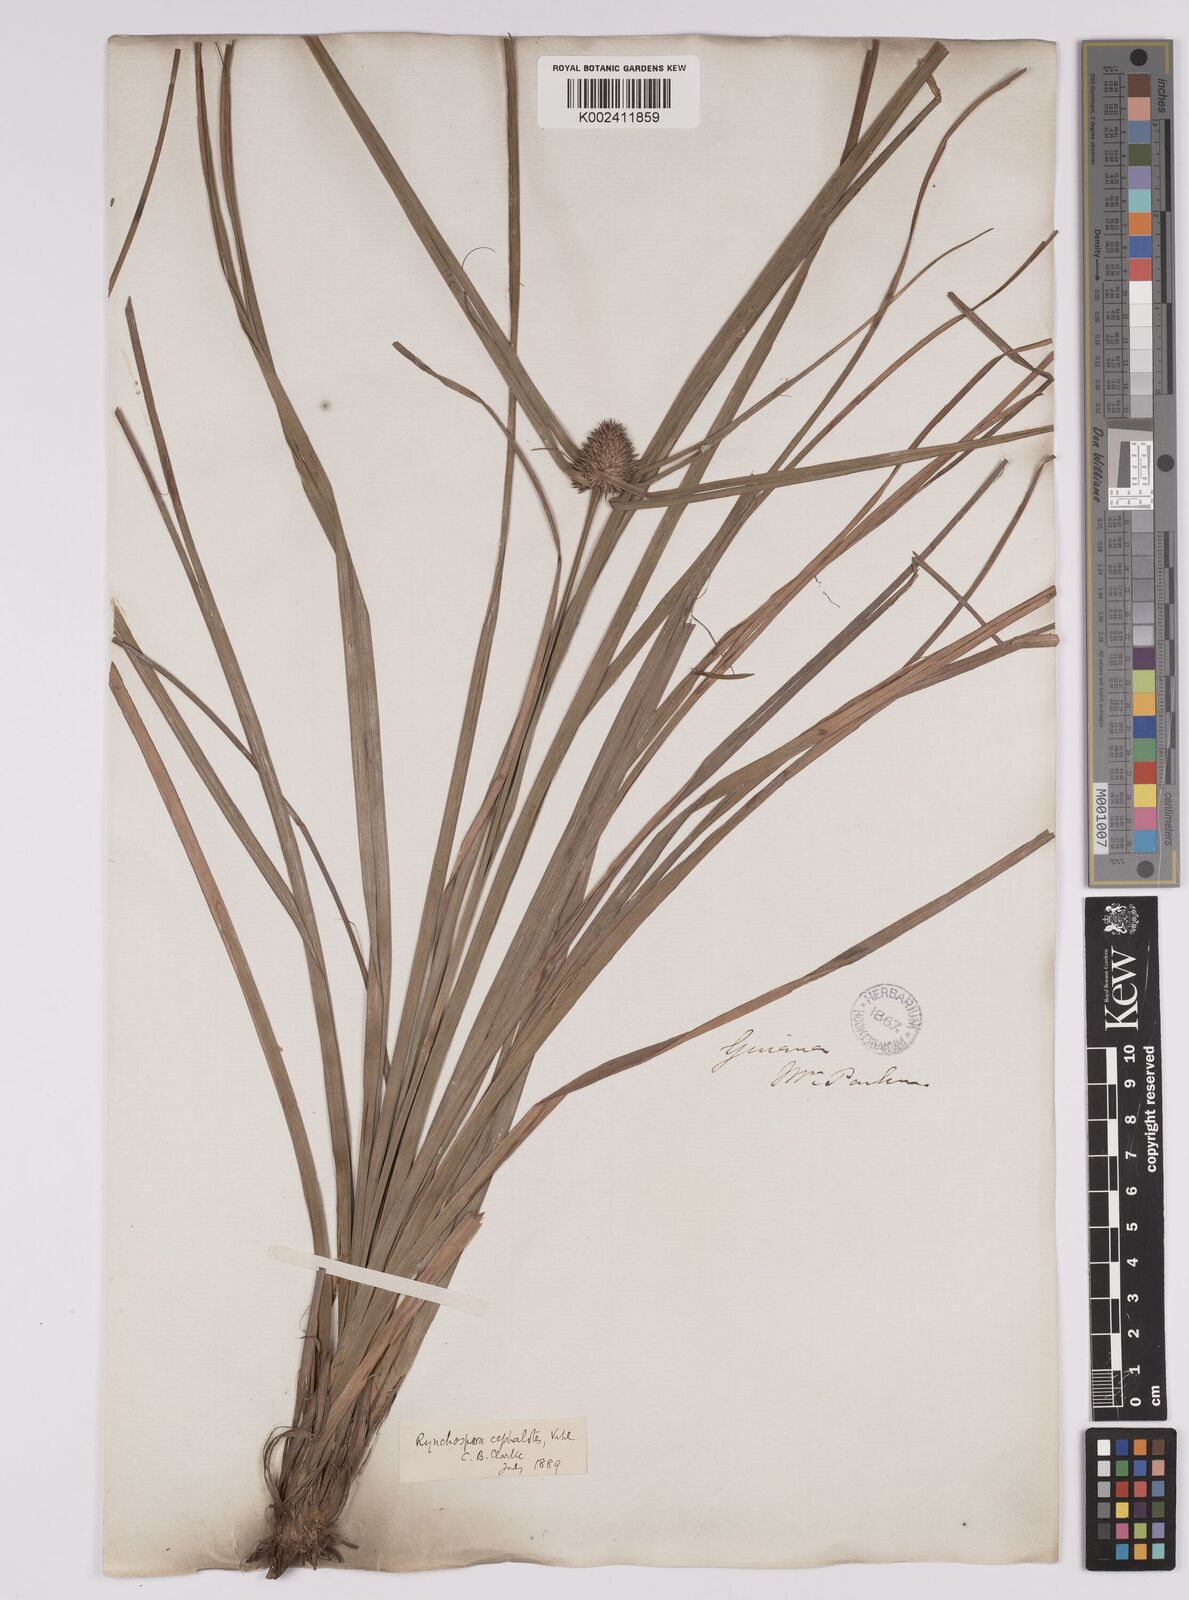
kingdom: Plantae
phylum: Tracheophyta
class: Liliopsida
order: Poales
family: Cyperaceae
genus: Rhynchospora
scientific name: Rhynchospora cephalotes
